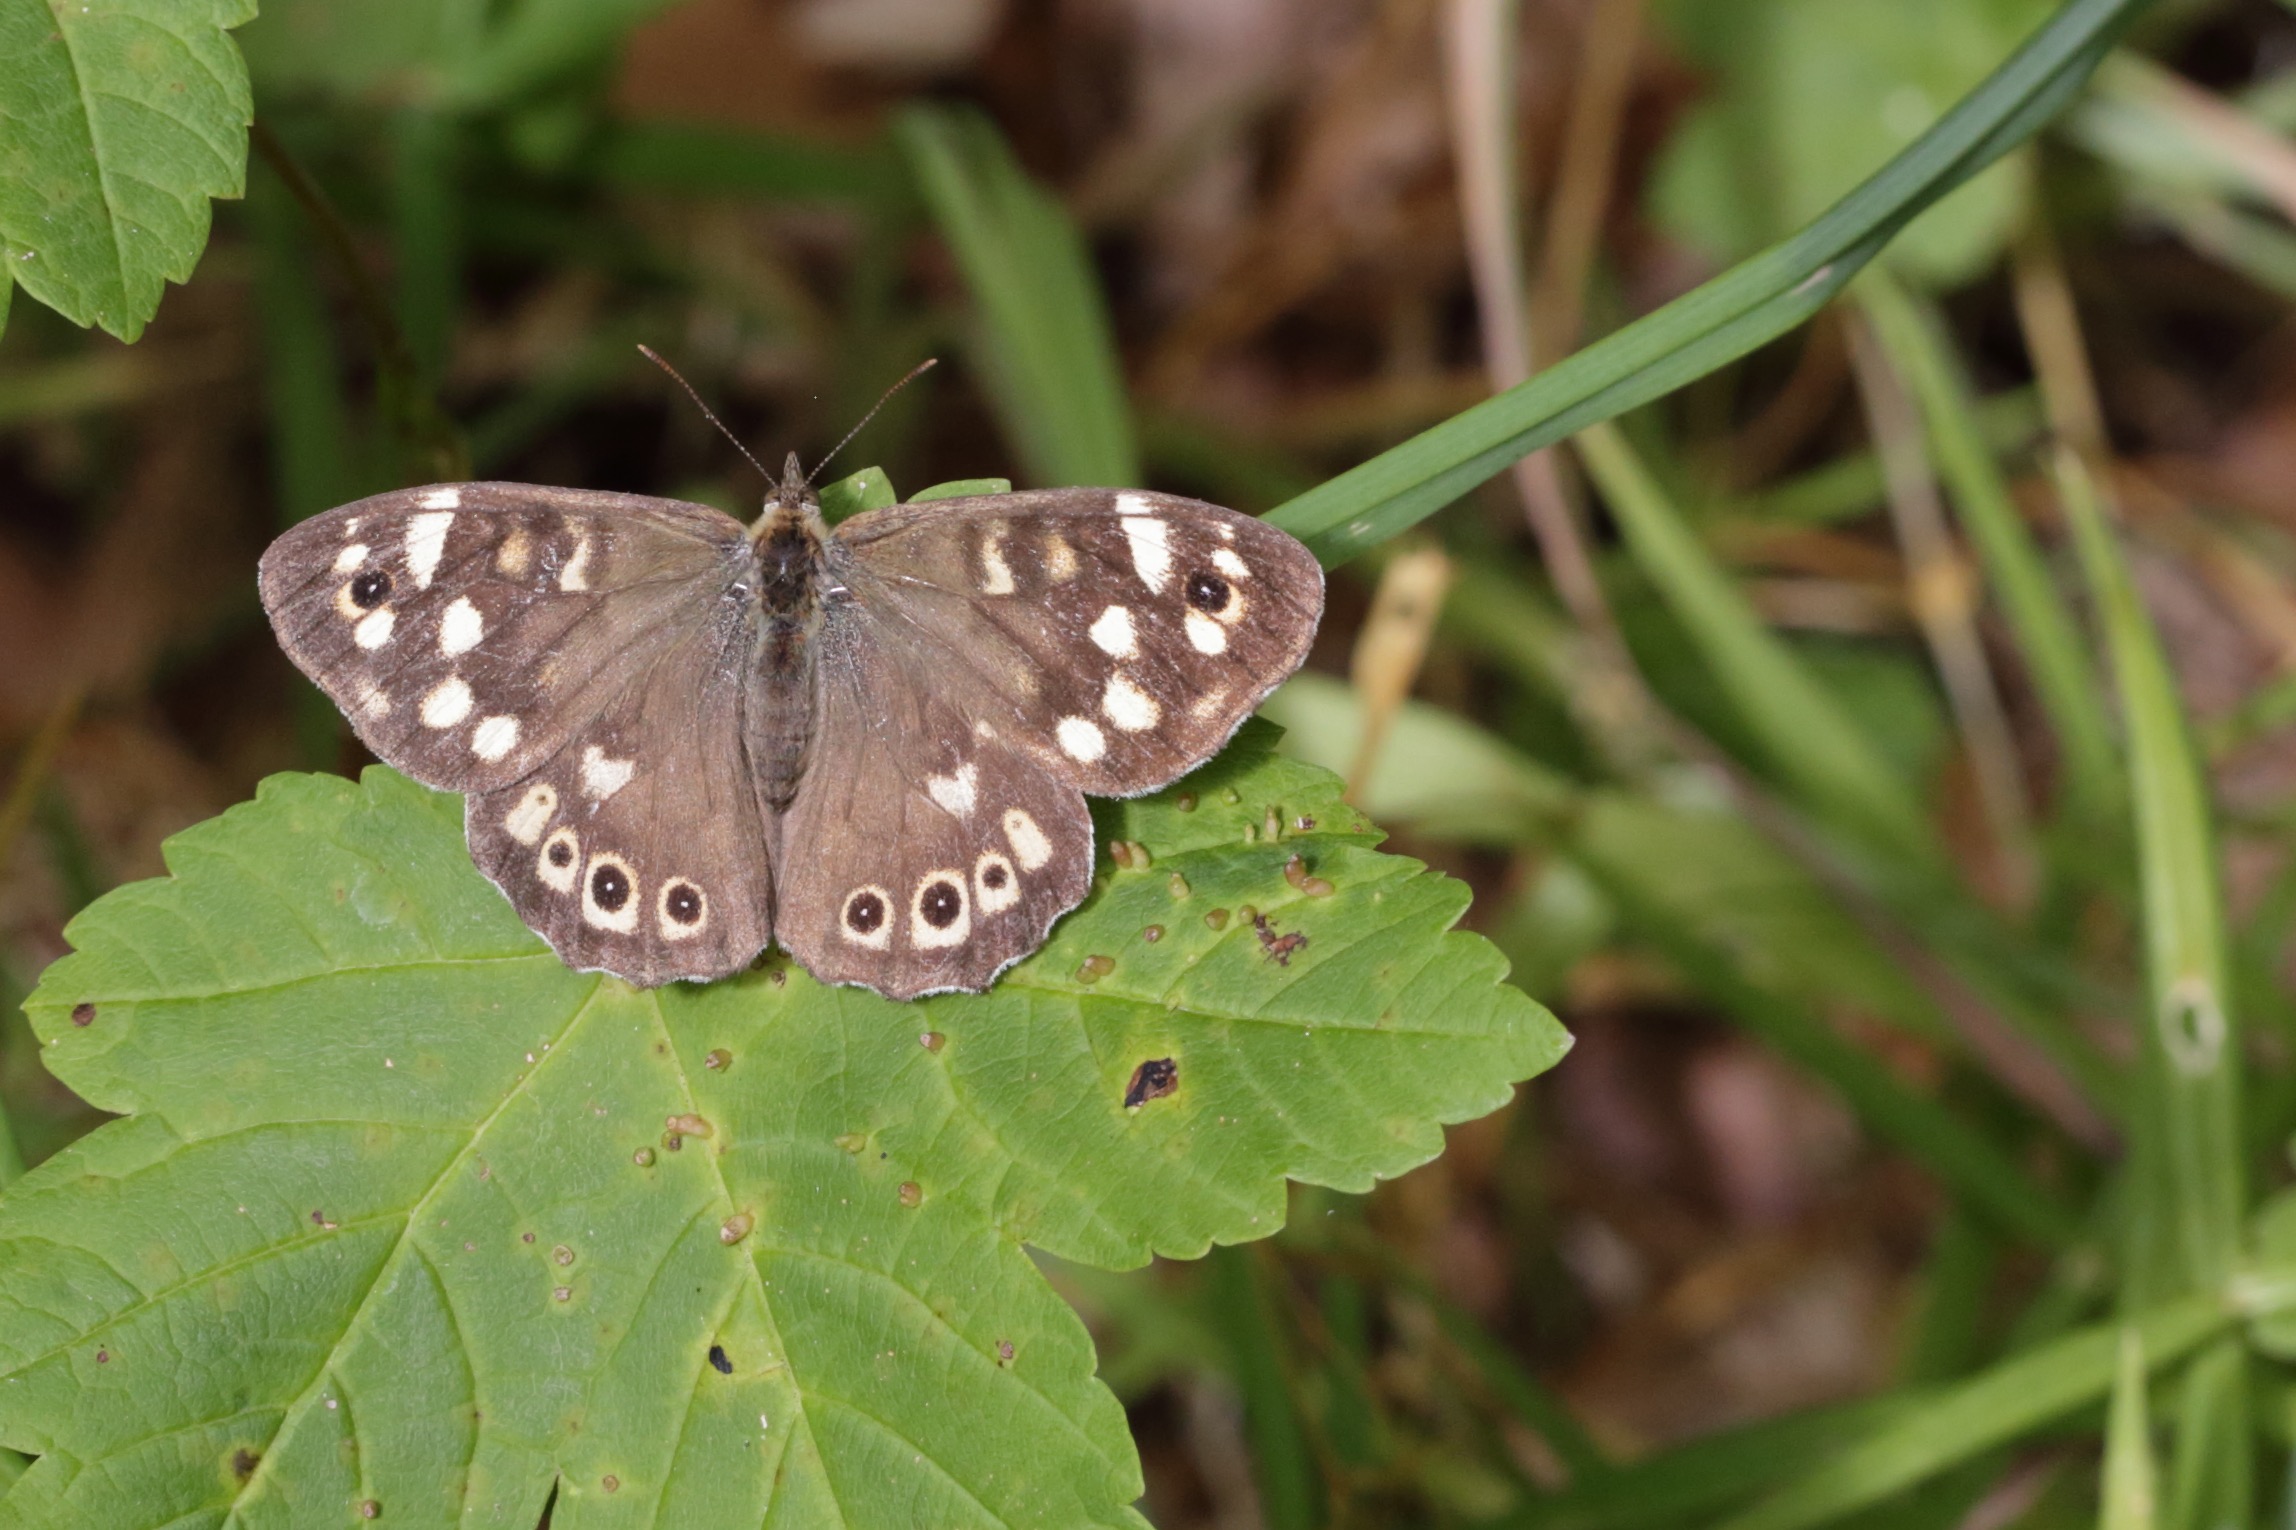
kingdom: Animalia
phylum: Arthropoda
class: Insecta
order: Lepidoptera
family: Nymphalidae
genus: Pararge
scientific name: Pararge aegeria
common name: Skovrandøje
